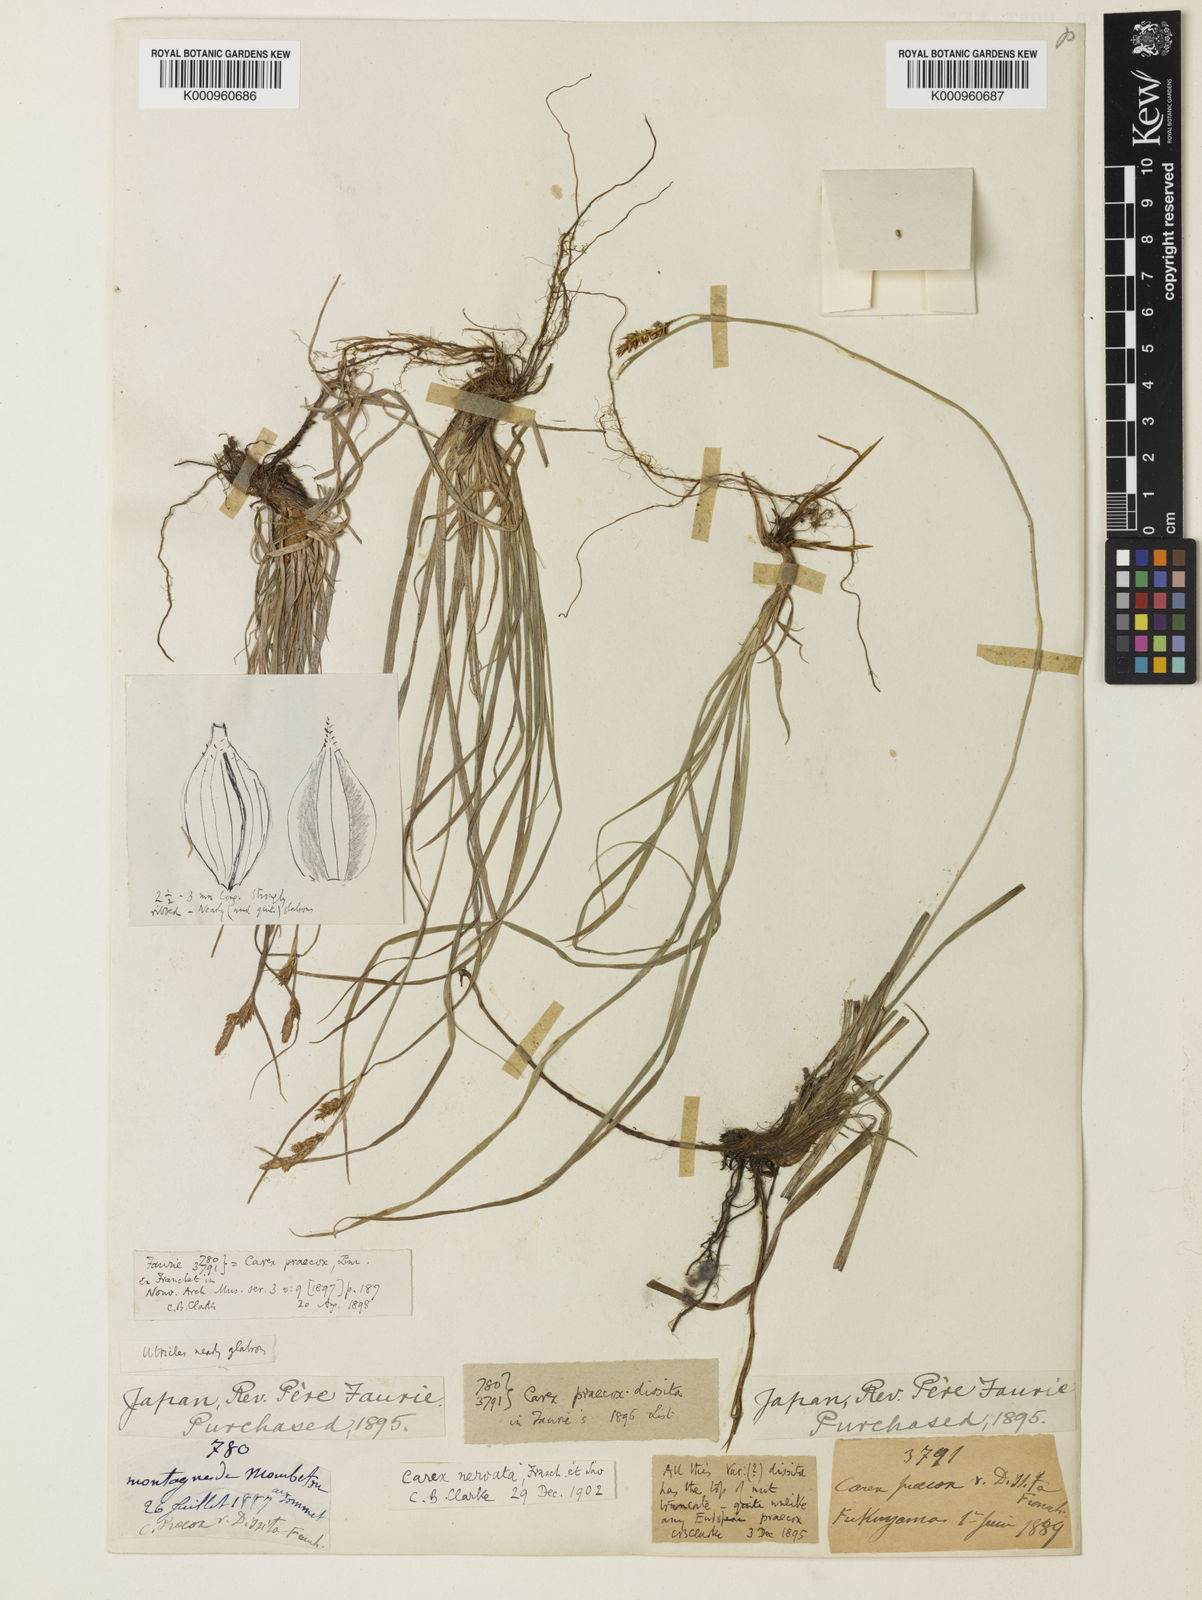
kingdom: Plantae
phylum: Tracheophyta
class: Liliopsida
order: Poales
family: Cyperaceae
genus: Carex
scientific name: Carex caryophyllea
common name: Spring sedge
